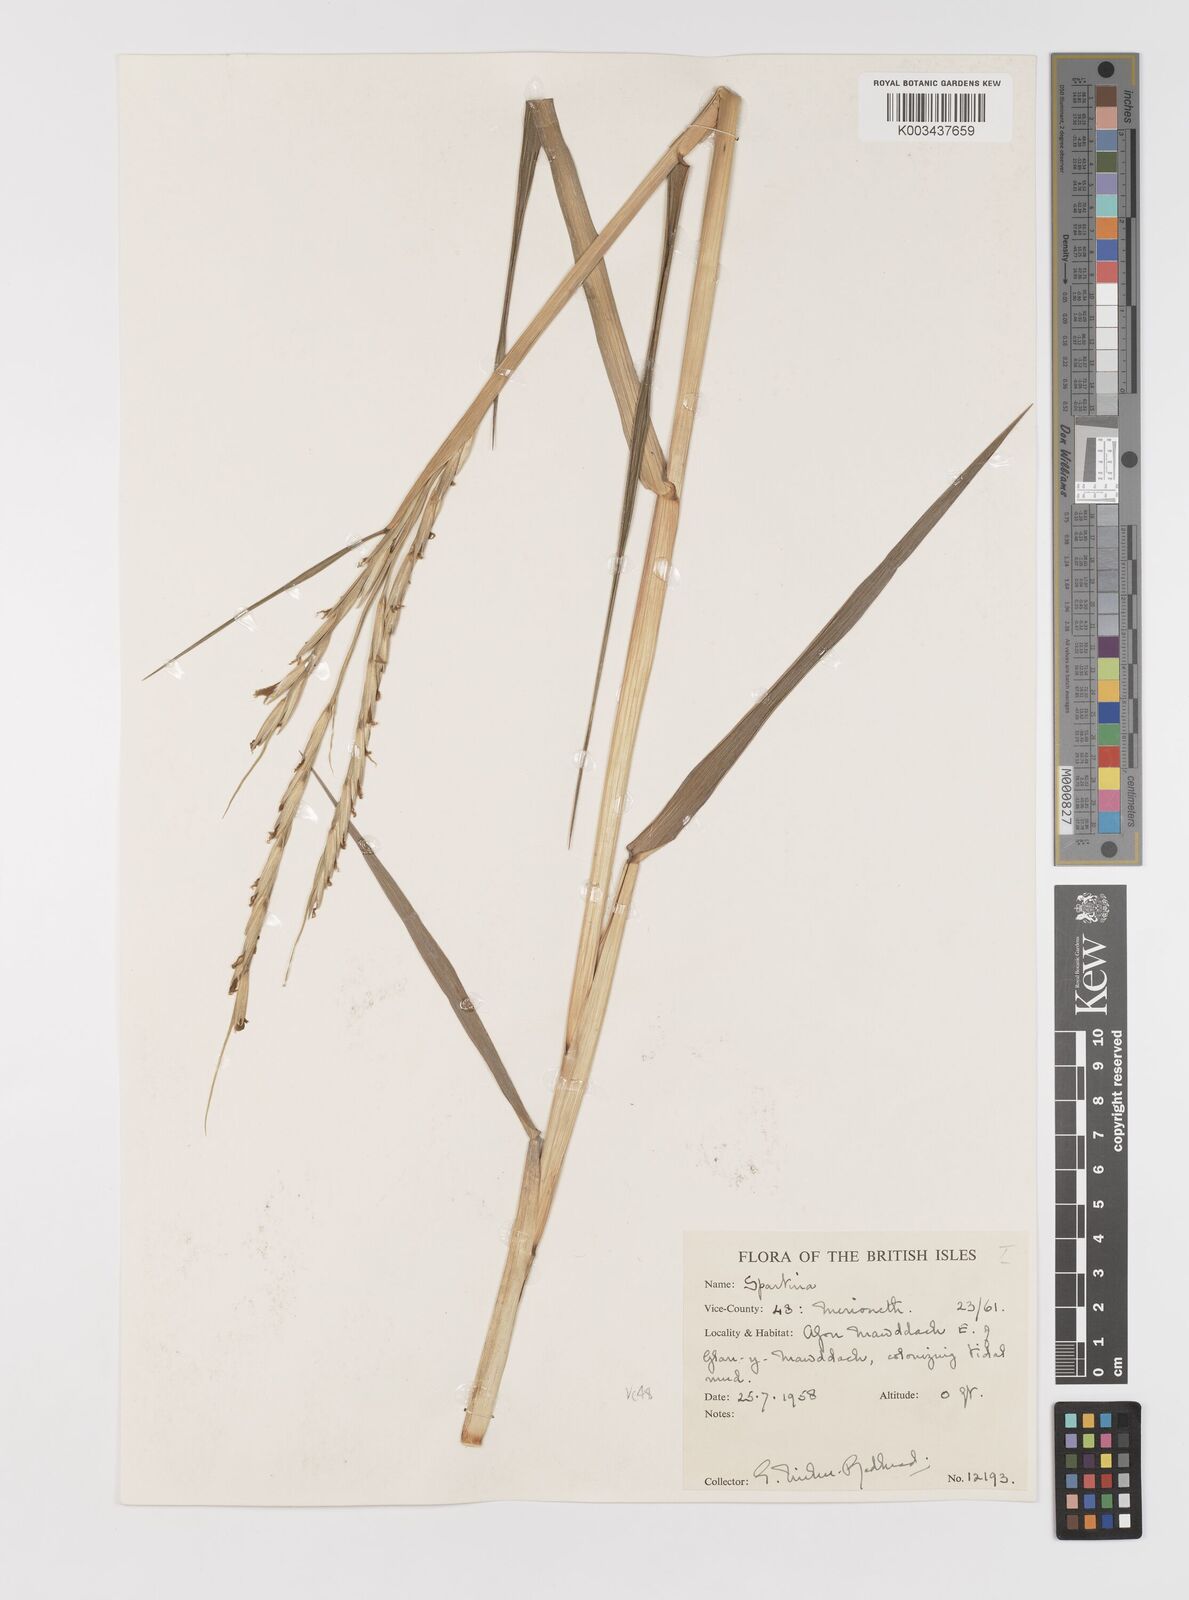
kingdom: Plantae
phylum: Tracheophyta
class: Liliopsida
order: Poales
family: Poaceae
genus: Sporobolus
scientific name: Sporobolus anglicus
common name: English cordgrass
